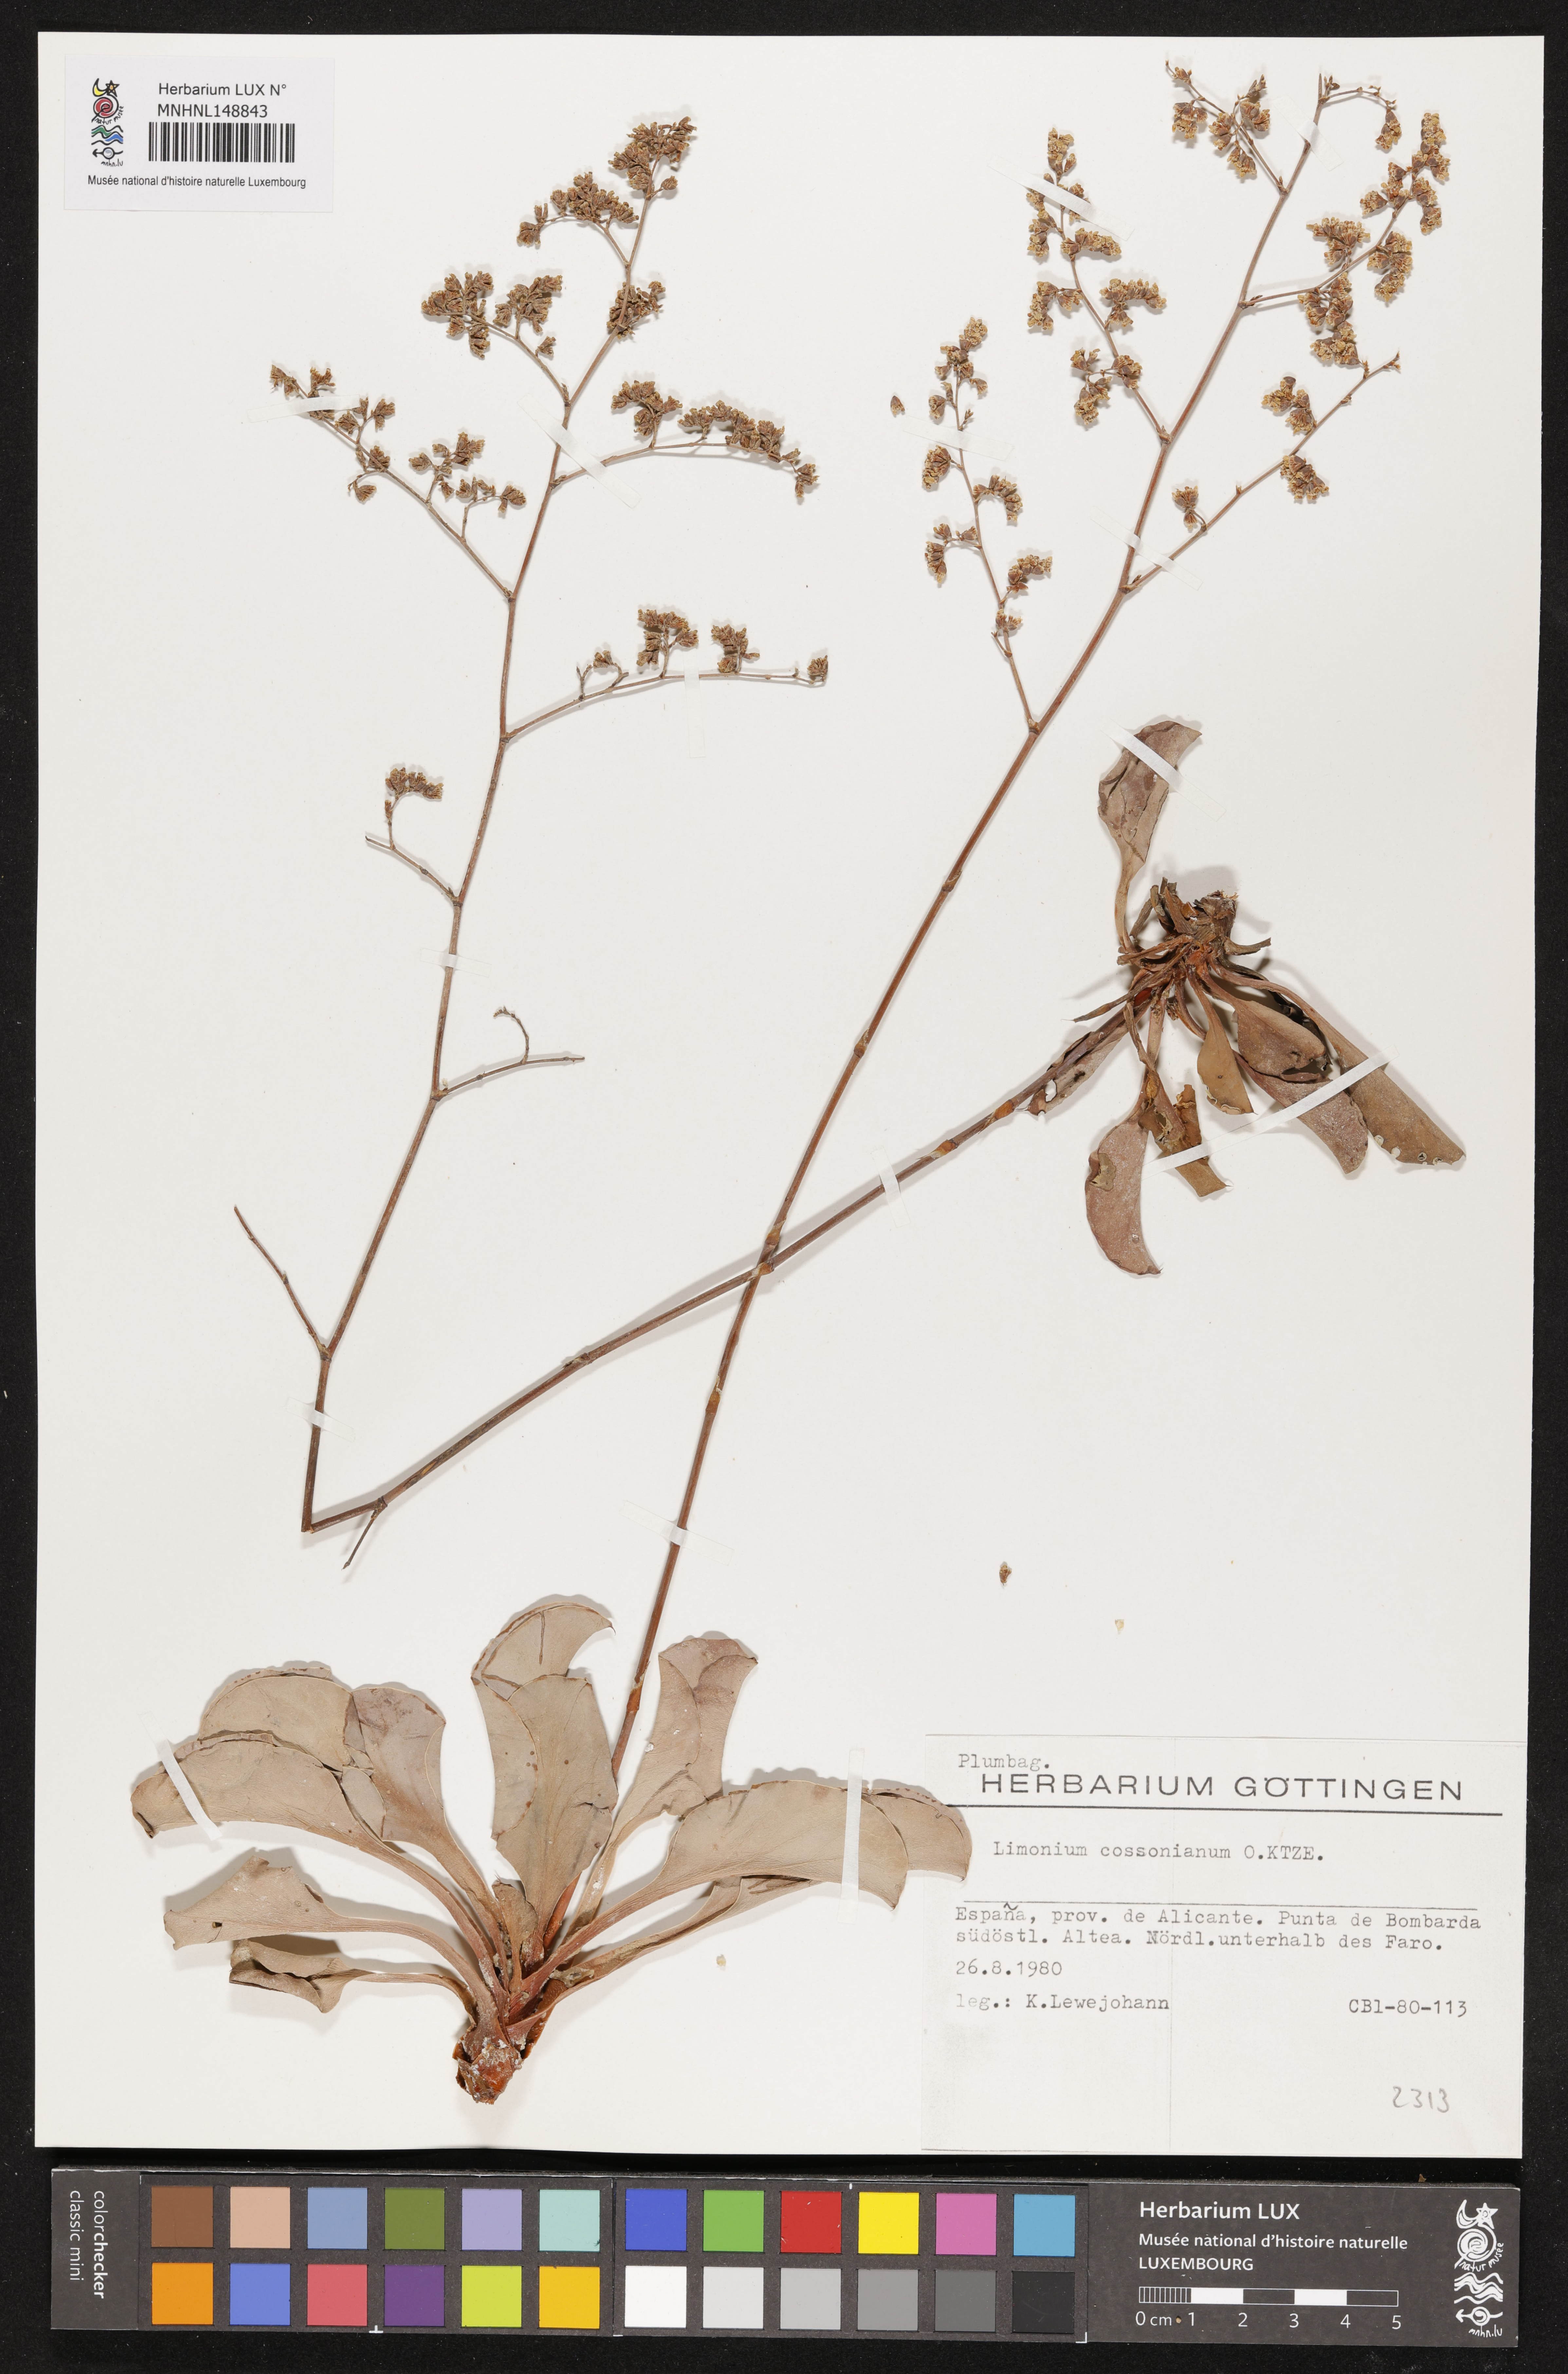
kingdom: Plantae
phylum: Tracheophyta
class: Magnoliopsida
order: Caryophyllales
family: Plumbaginaceae
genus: Limonium
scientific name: Limonium cossonianum
